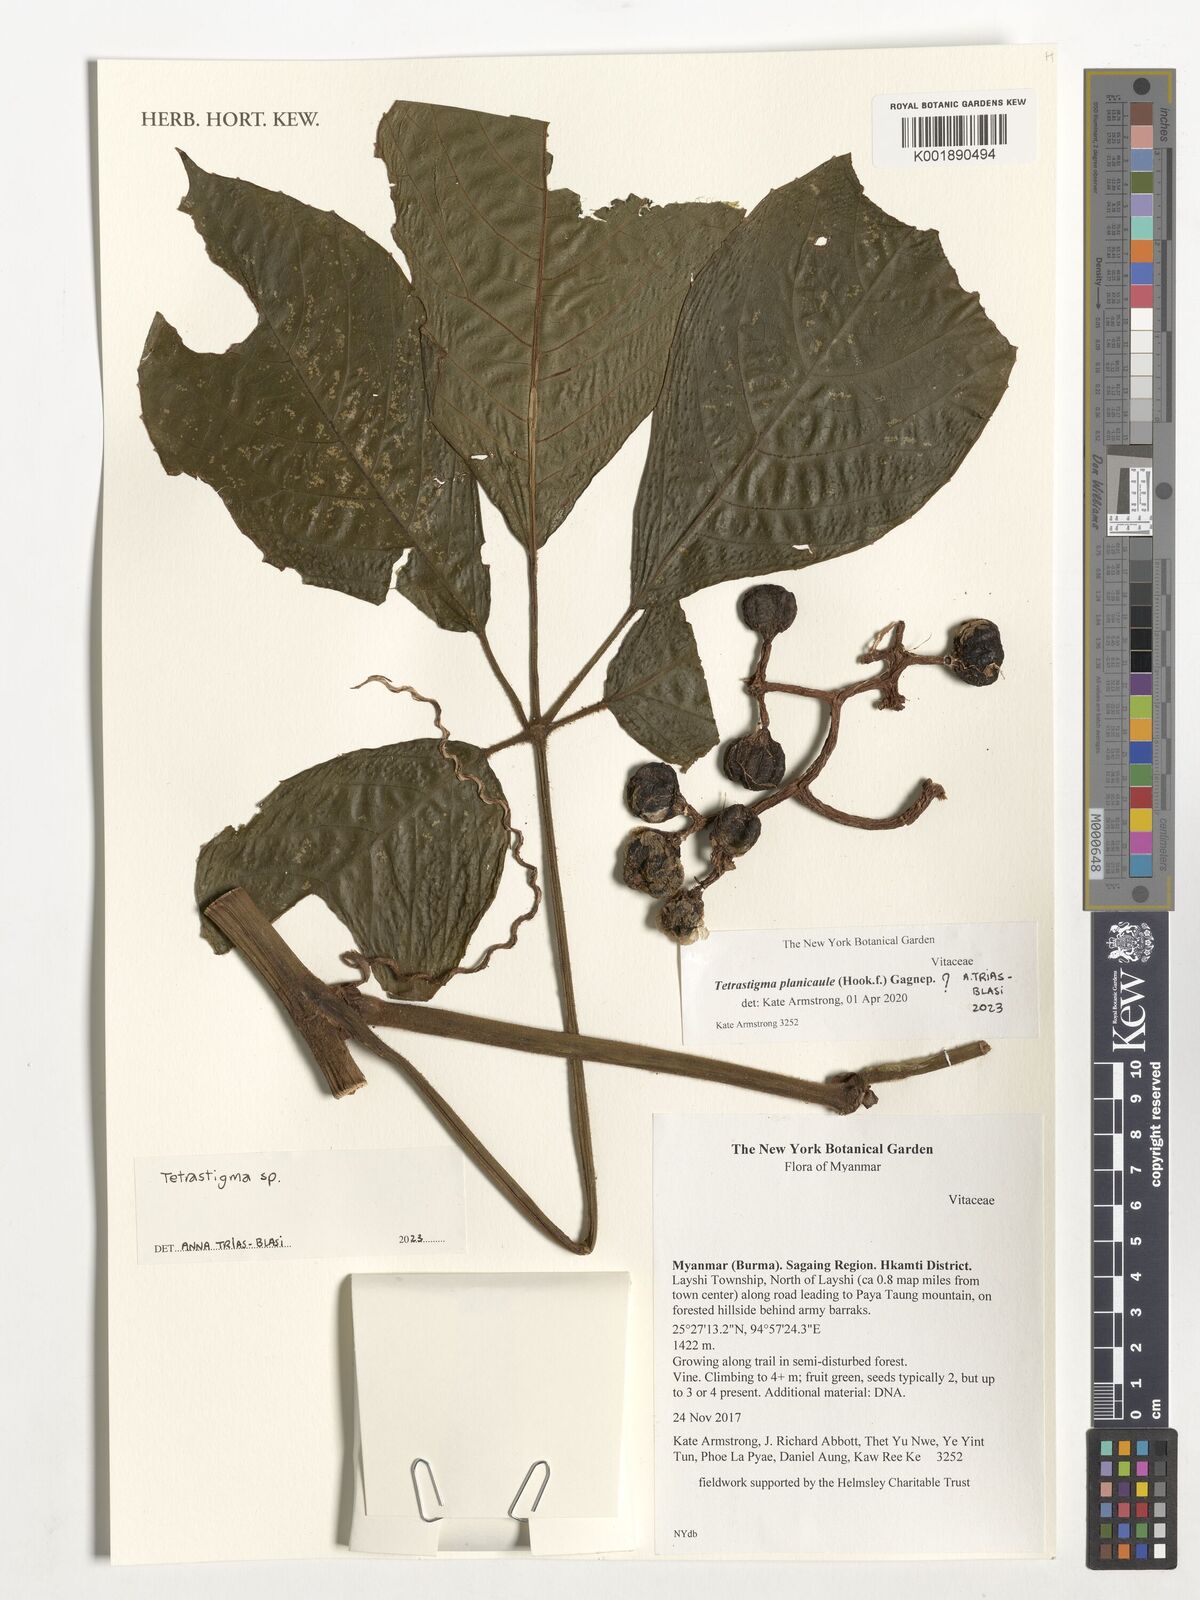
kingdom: Plantae
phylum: Tracheophyta
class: Magnoliopsida
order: Vitales
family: Vitaceae
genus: Tetrastigma
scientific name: Tetrastigma
